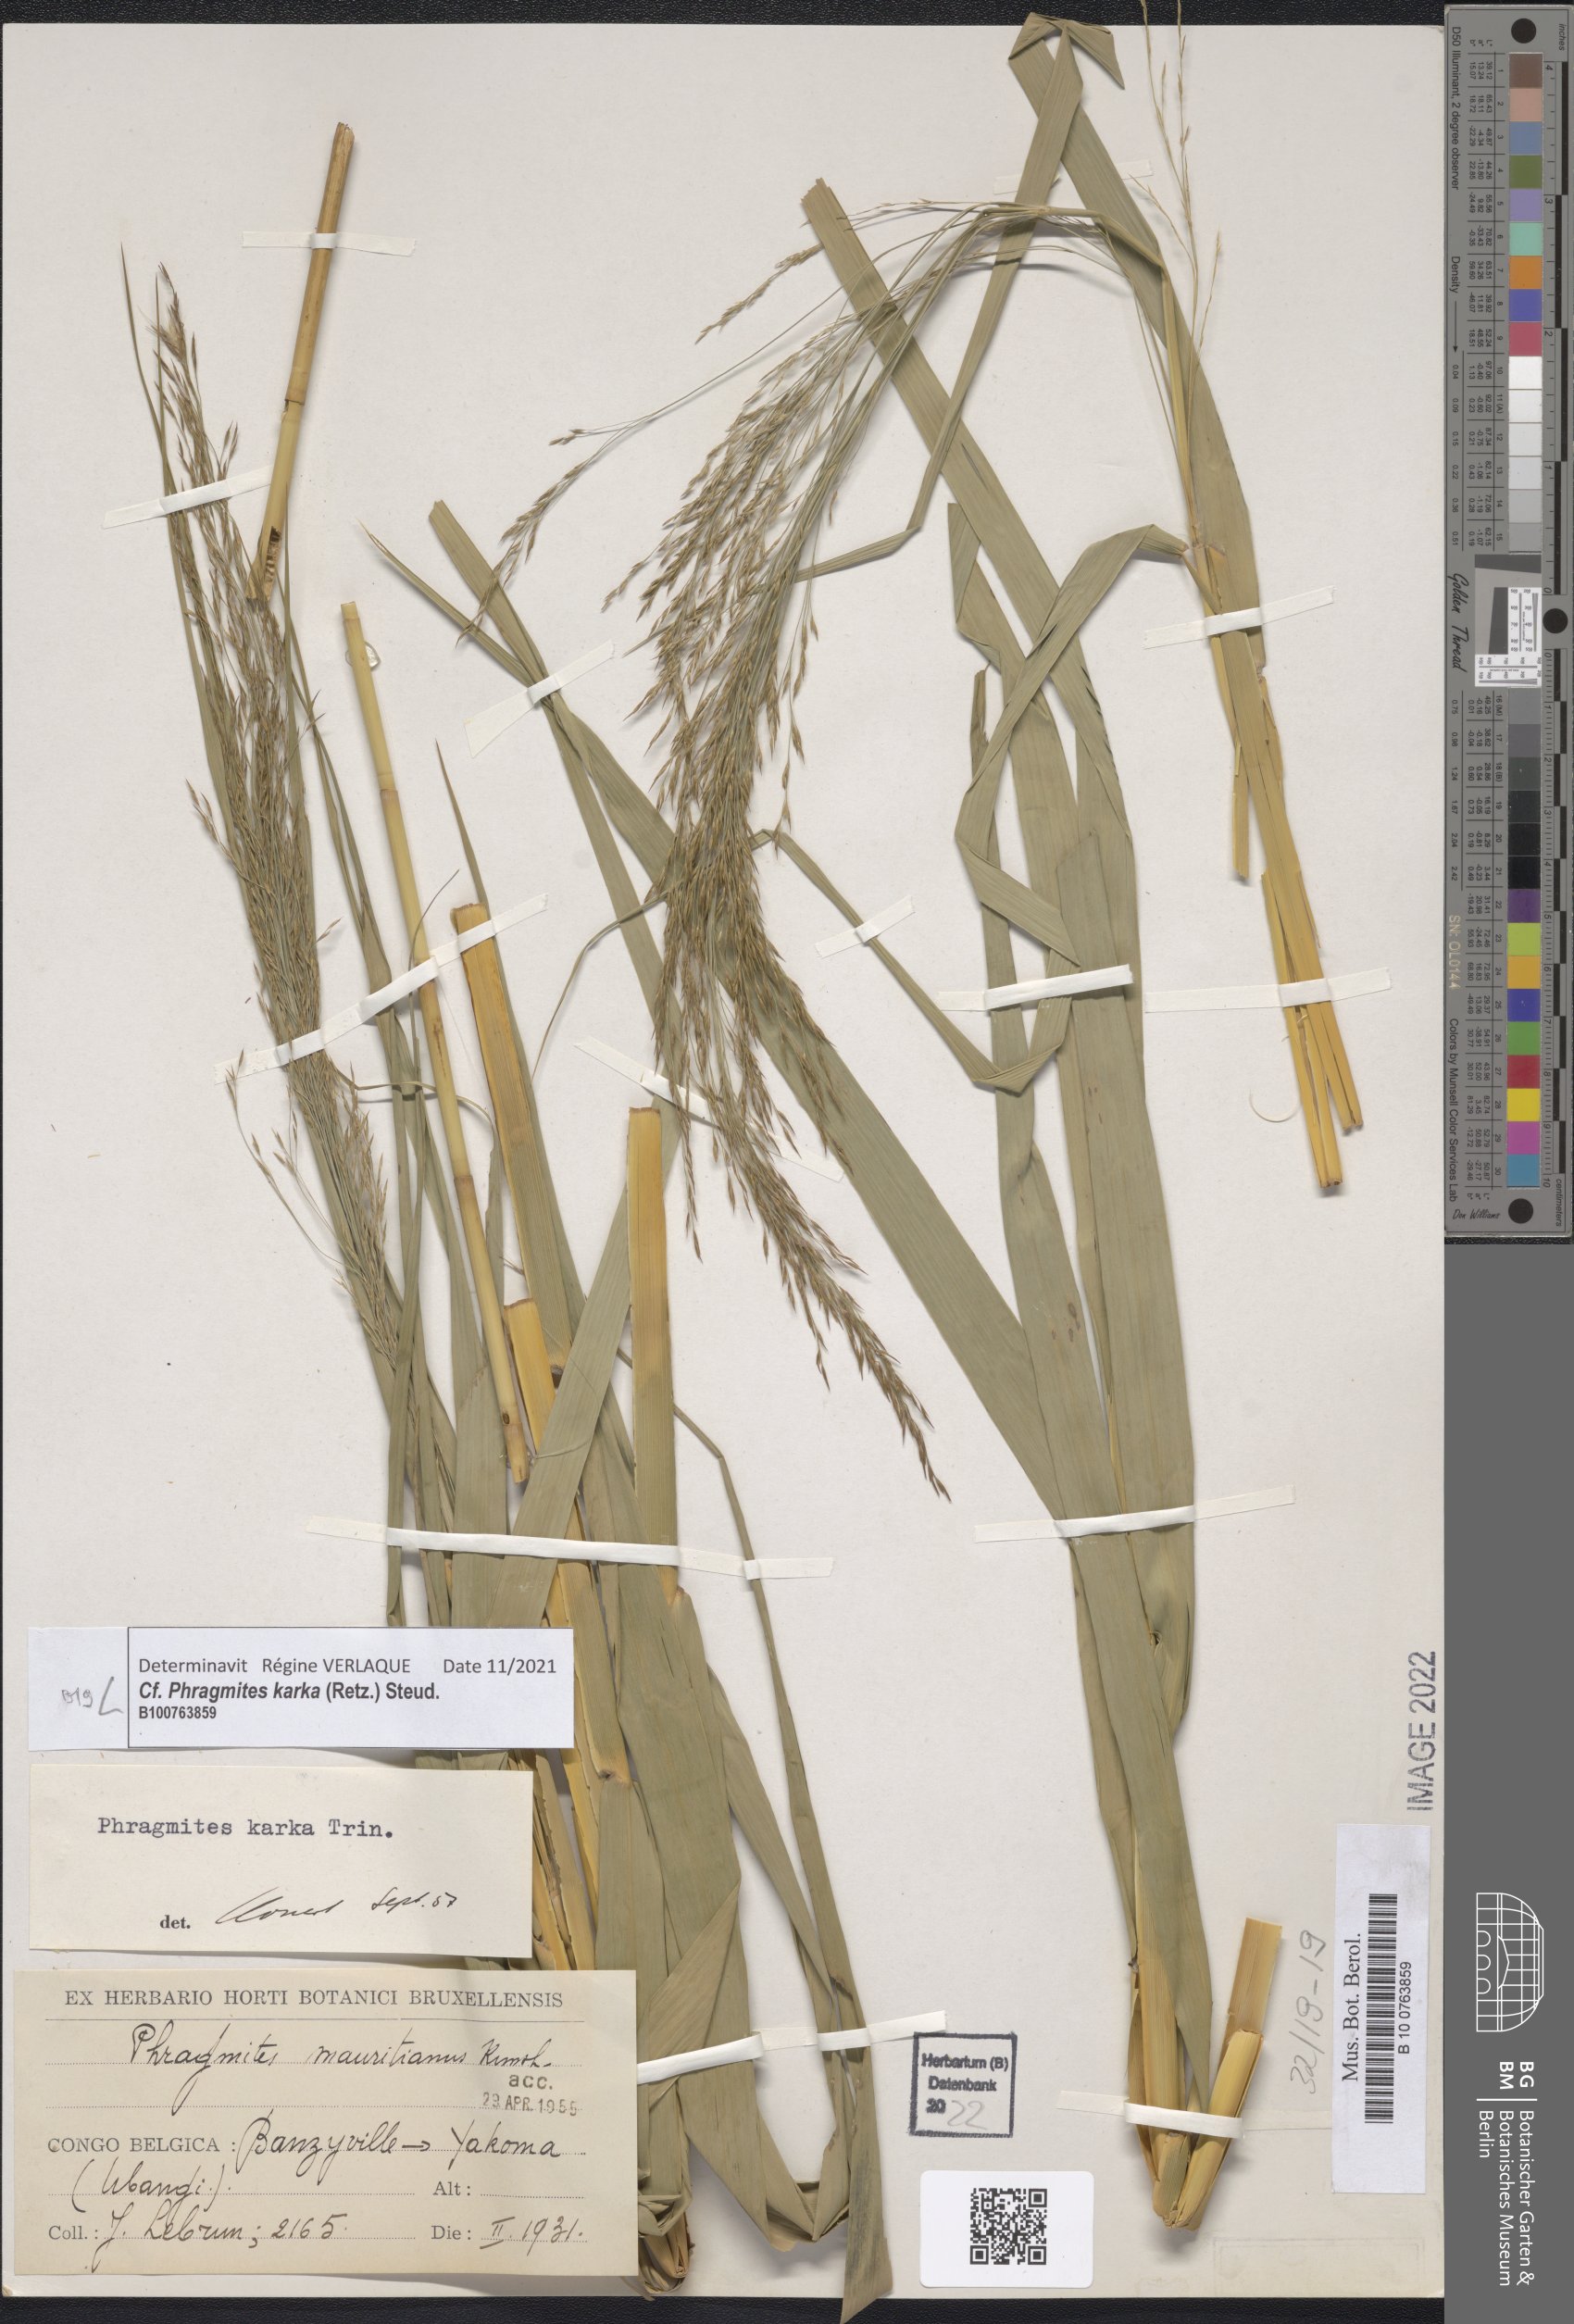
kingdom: Plantae
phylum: Tracheophyta
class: Liliopsida
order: Poales
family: Poaceae
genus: Phragmites
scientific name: Phragmites karka
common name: Tropical reed
